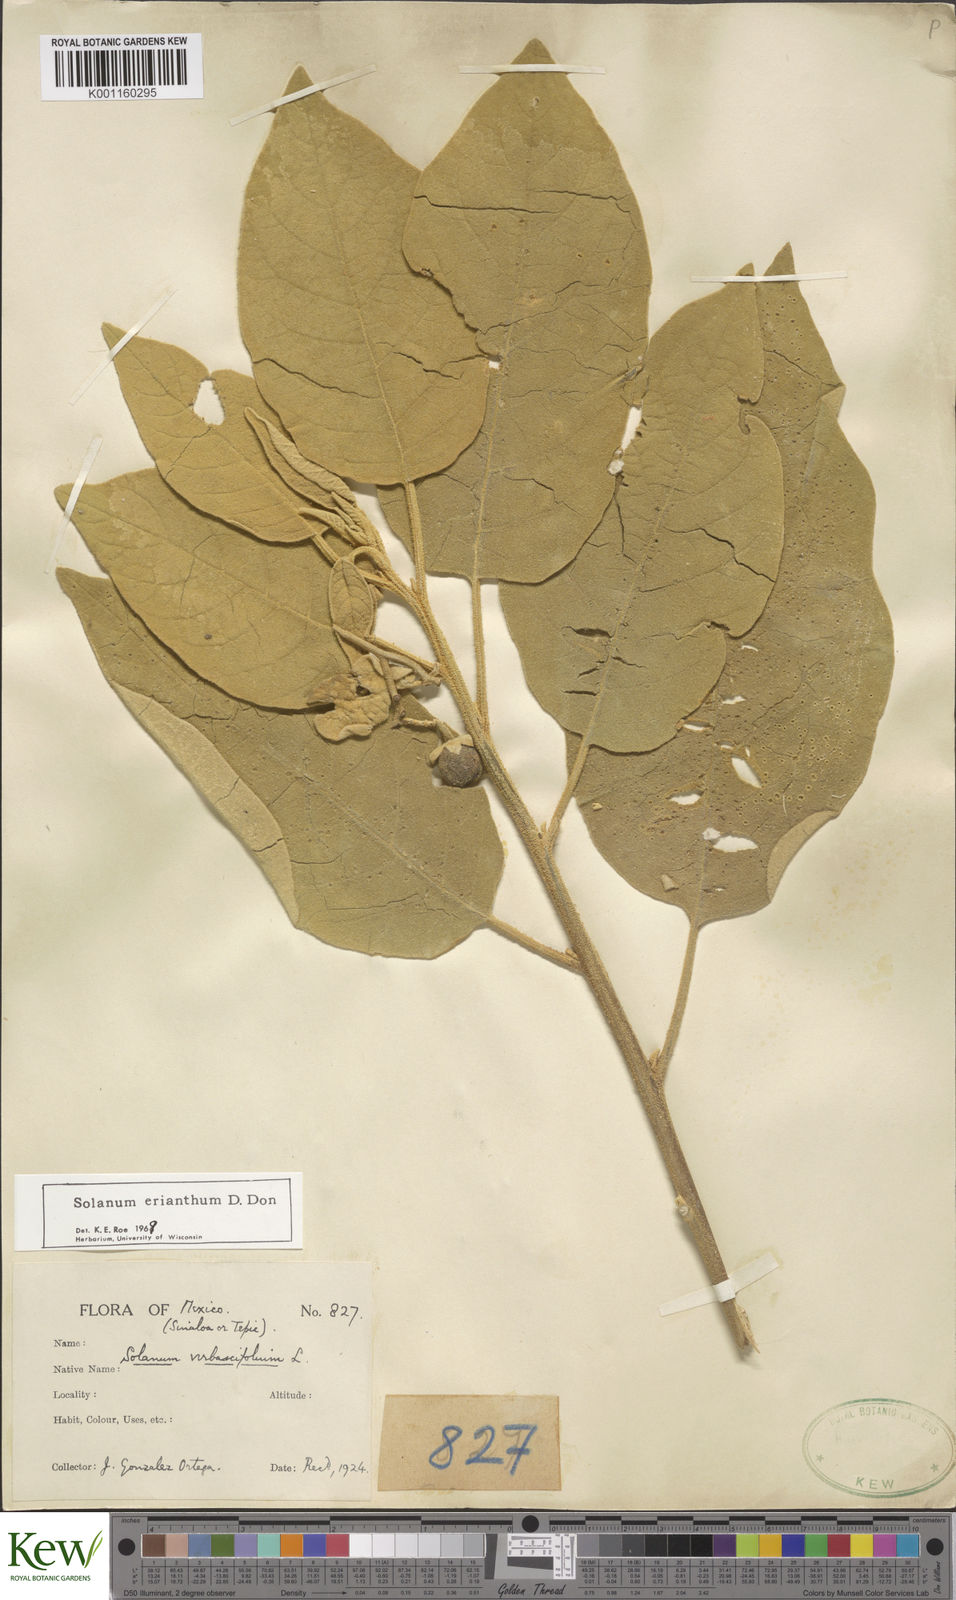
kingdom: Plantae
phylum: Tracheophyta
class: Magnoliopsida
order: Solanales
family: Solanaceae
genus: Solanum
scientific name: Solanum erianthum
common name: Tobacco-tree
